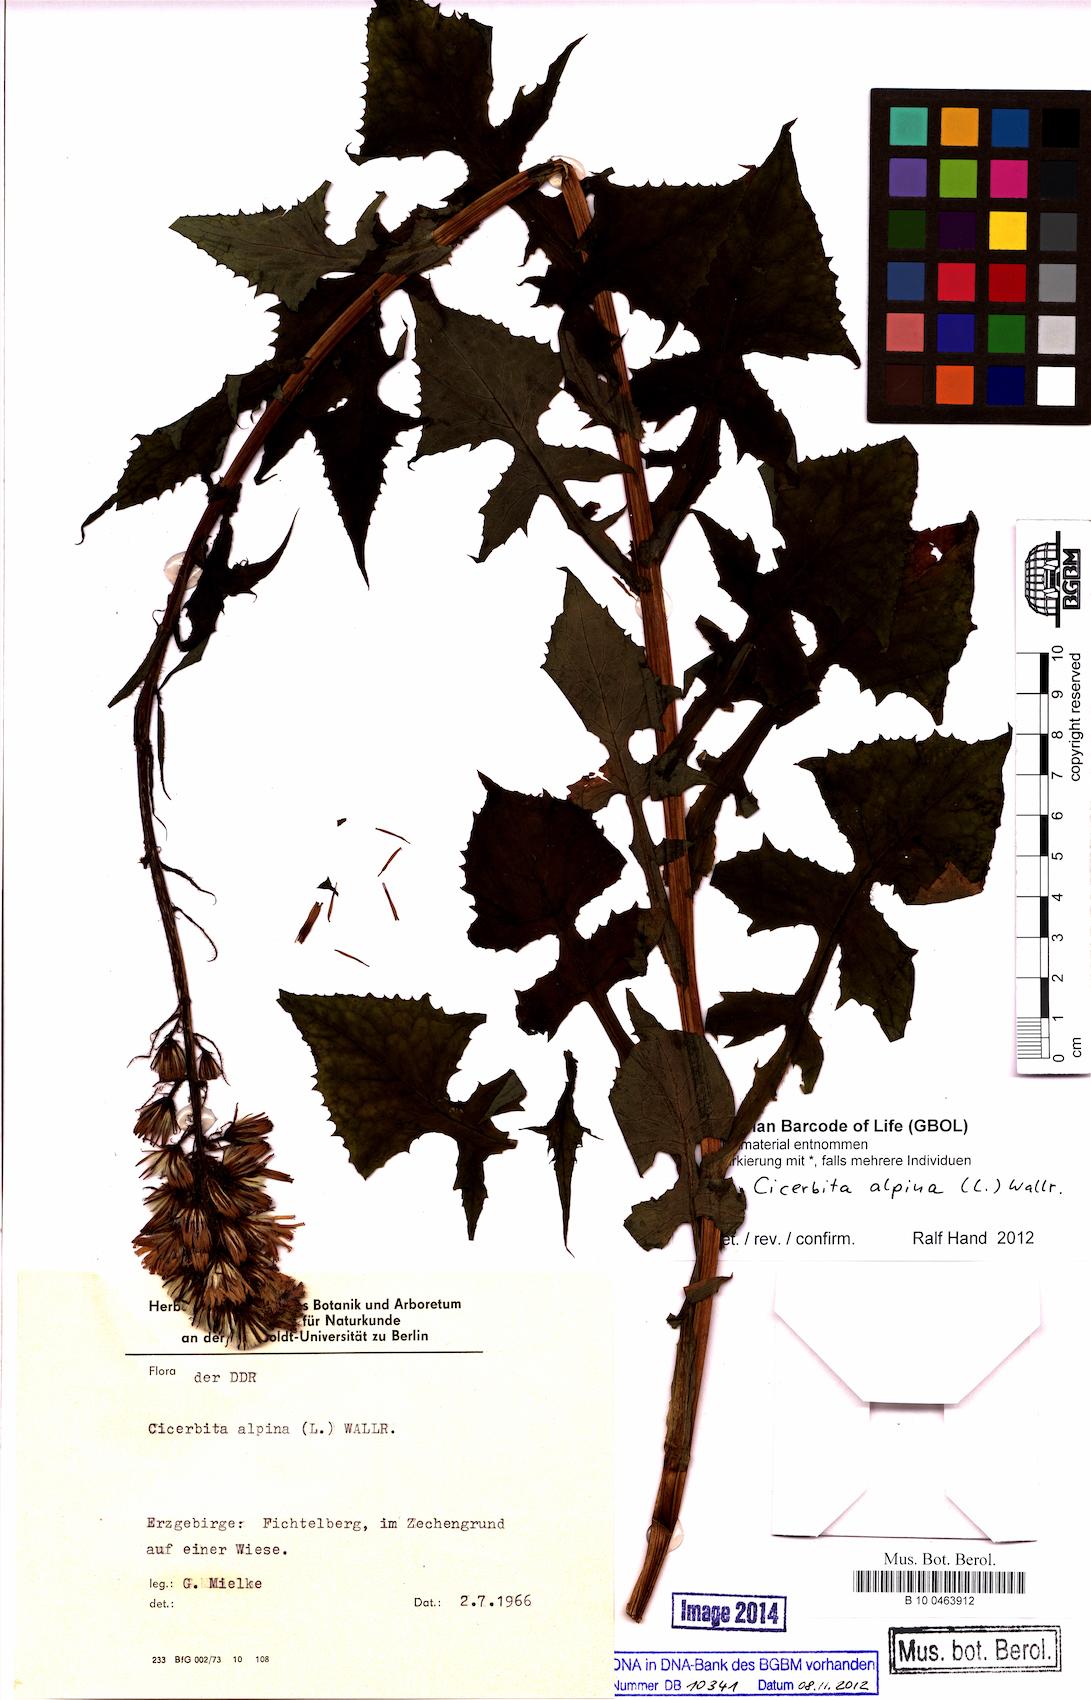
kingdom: Plantae
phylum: Tracheophyta
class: Magnoliopsida
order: Asterales
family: Asteraceae
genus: Cicerbita
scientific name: Cicerbita alpina
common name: Alpine blue-sow-thistle
